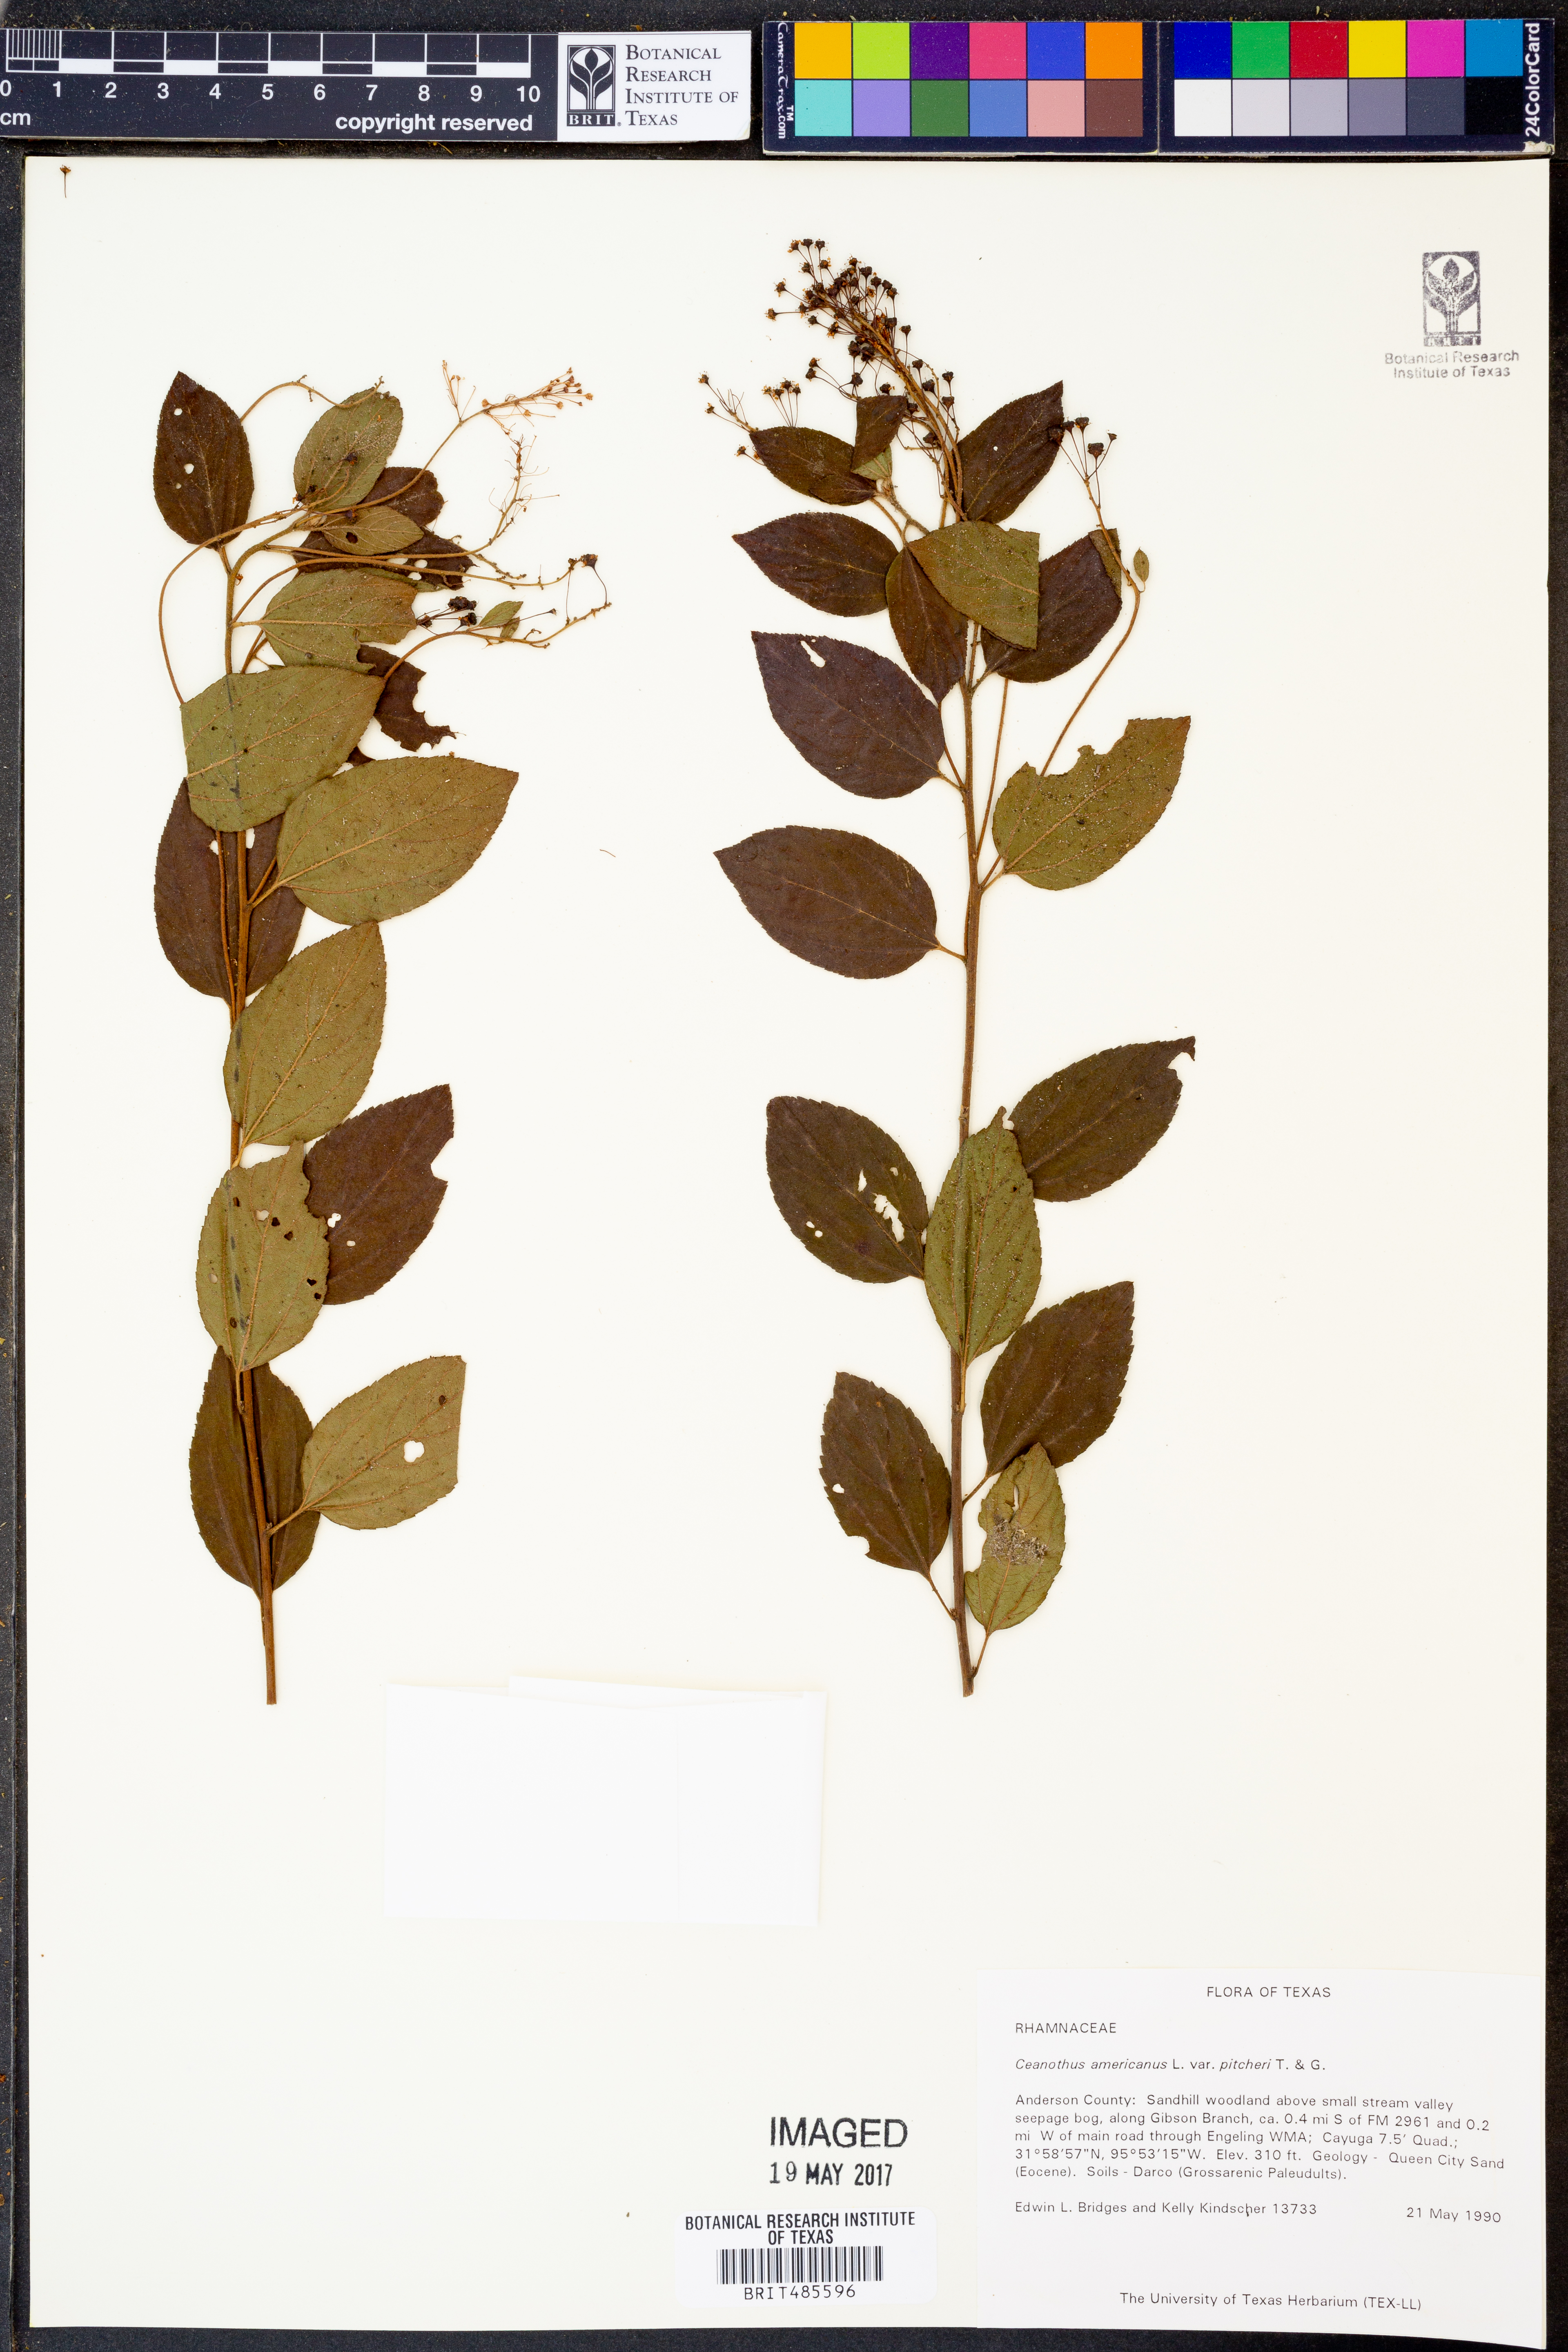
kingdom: Plantae
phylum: Tracheophyta
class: Magnoliopsida
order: Rosales
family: Rhamnaceae
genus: Ceanothus
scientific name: Ceanothus americanus
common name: Redroot
